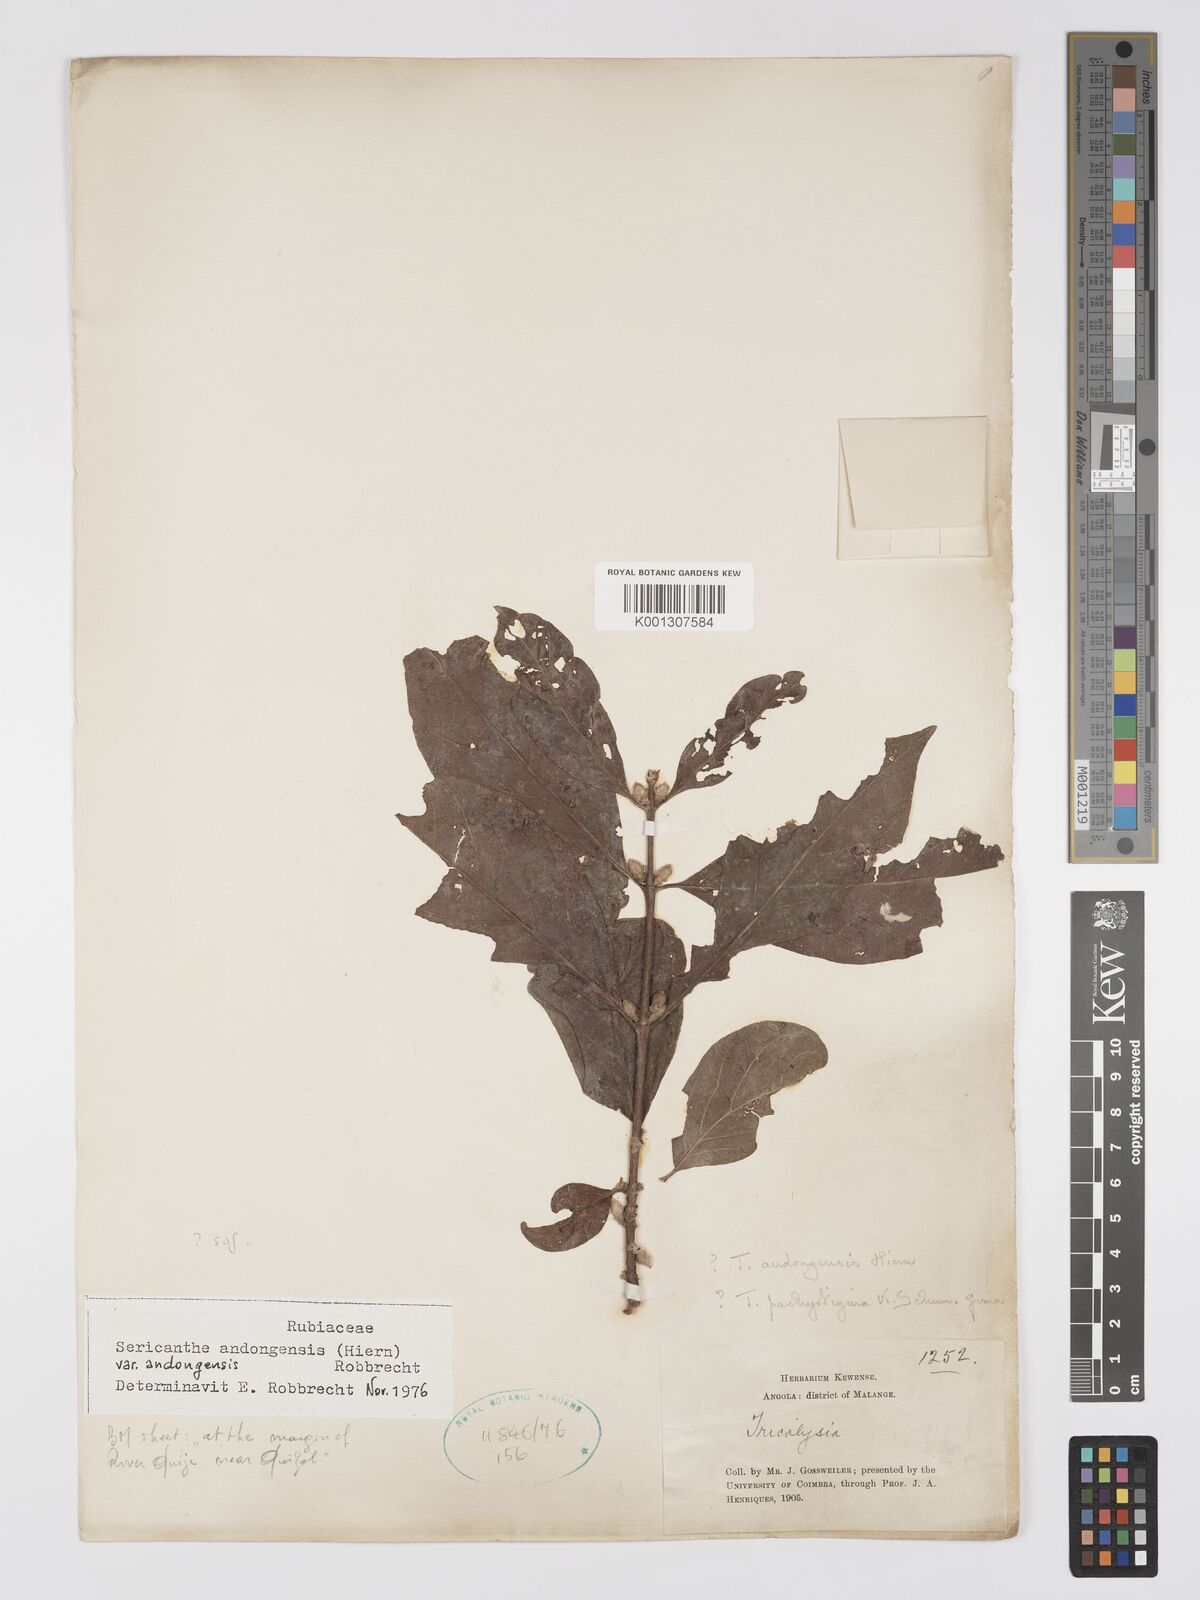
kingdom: Plantae
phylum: Tracheophyta
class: Magnoliopsida
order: Gentianales
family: Rubiaceae
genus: Sericanthe
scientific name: Sericanthe andongensis
